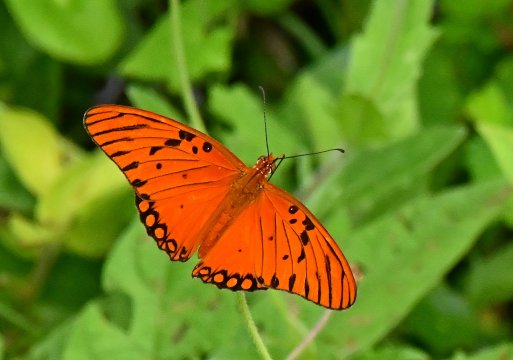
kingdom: Animalia
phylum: Arthropoda
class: Insecta
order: Lepidoptera
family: Nymphalidae
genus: Dione
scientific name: Dione vanillae
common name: Gulf Fritillary
